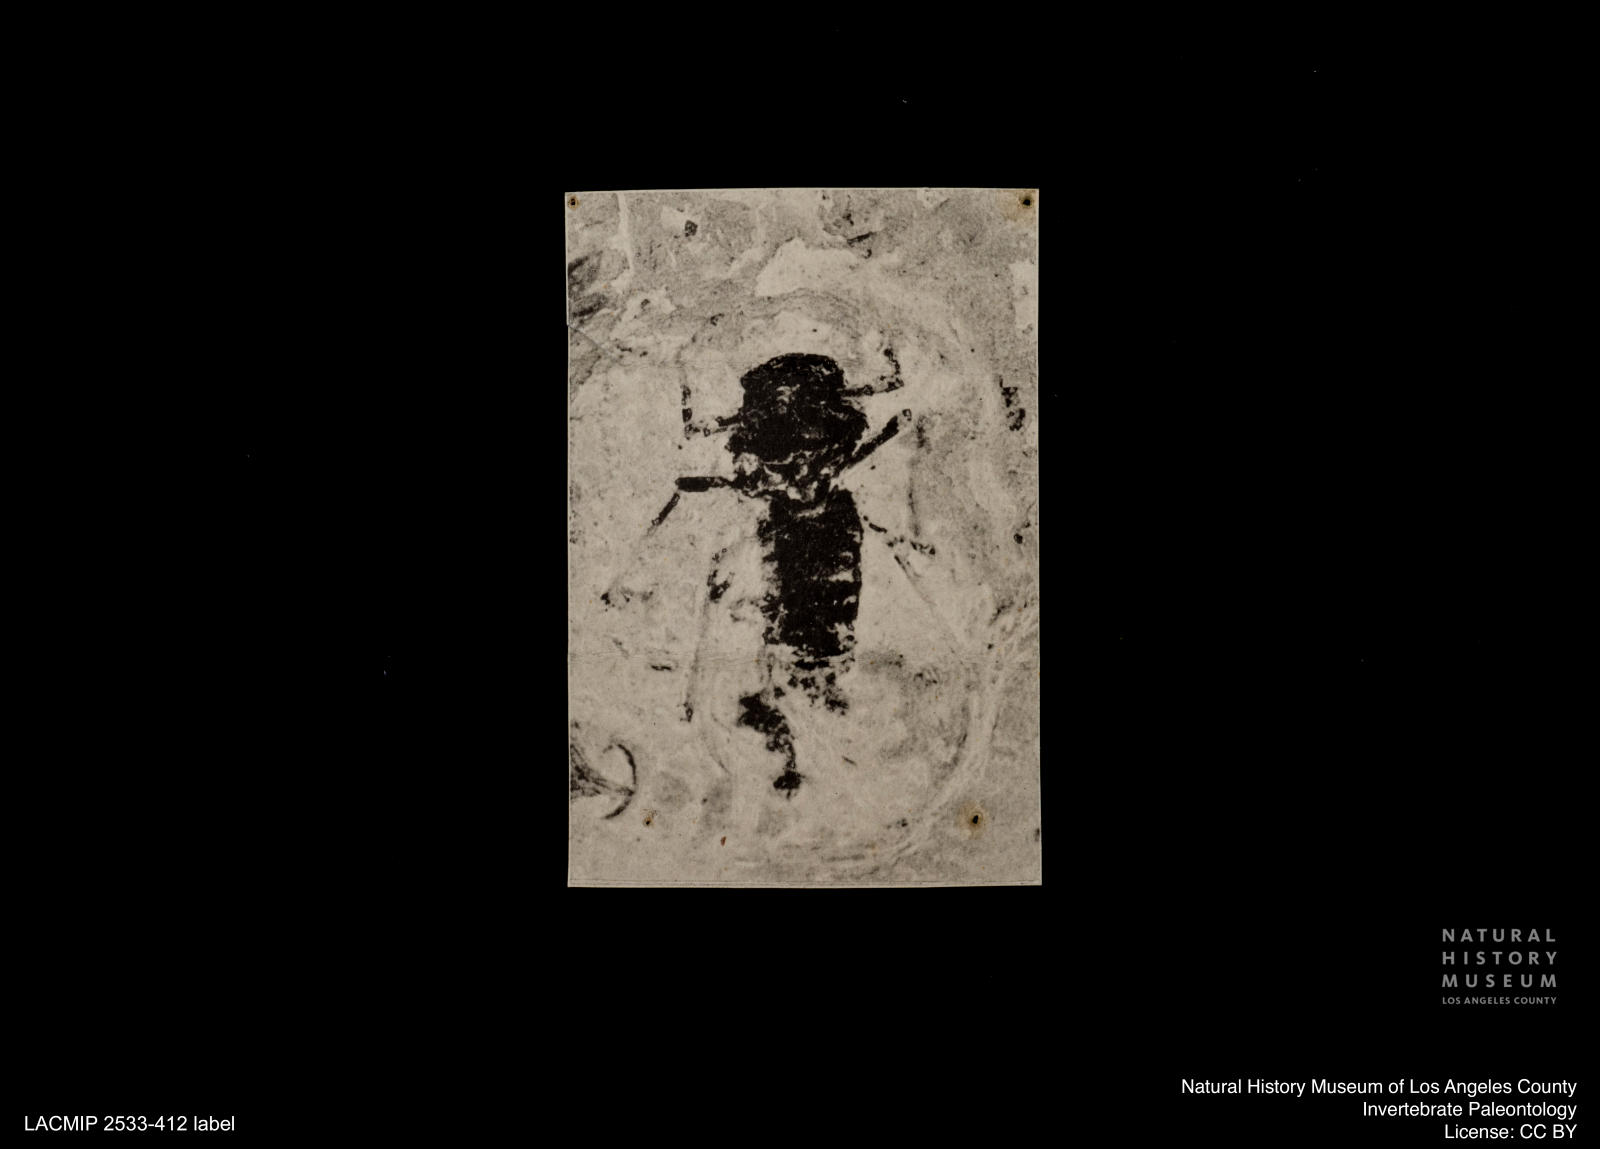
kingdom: Animalia
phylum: Arthropoda
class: Insecta
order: Diptera
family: Chironomidae
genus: Tanypus
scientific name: Tanypus fuscus
